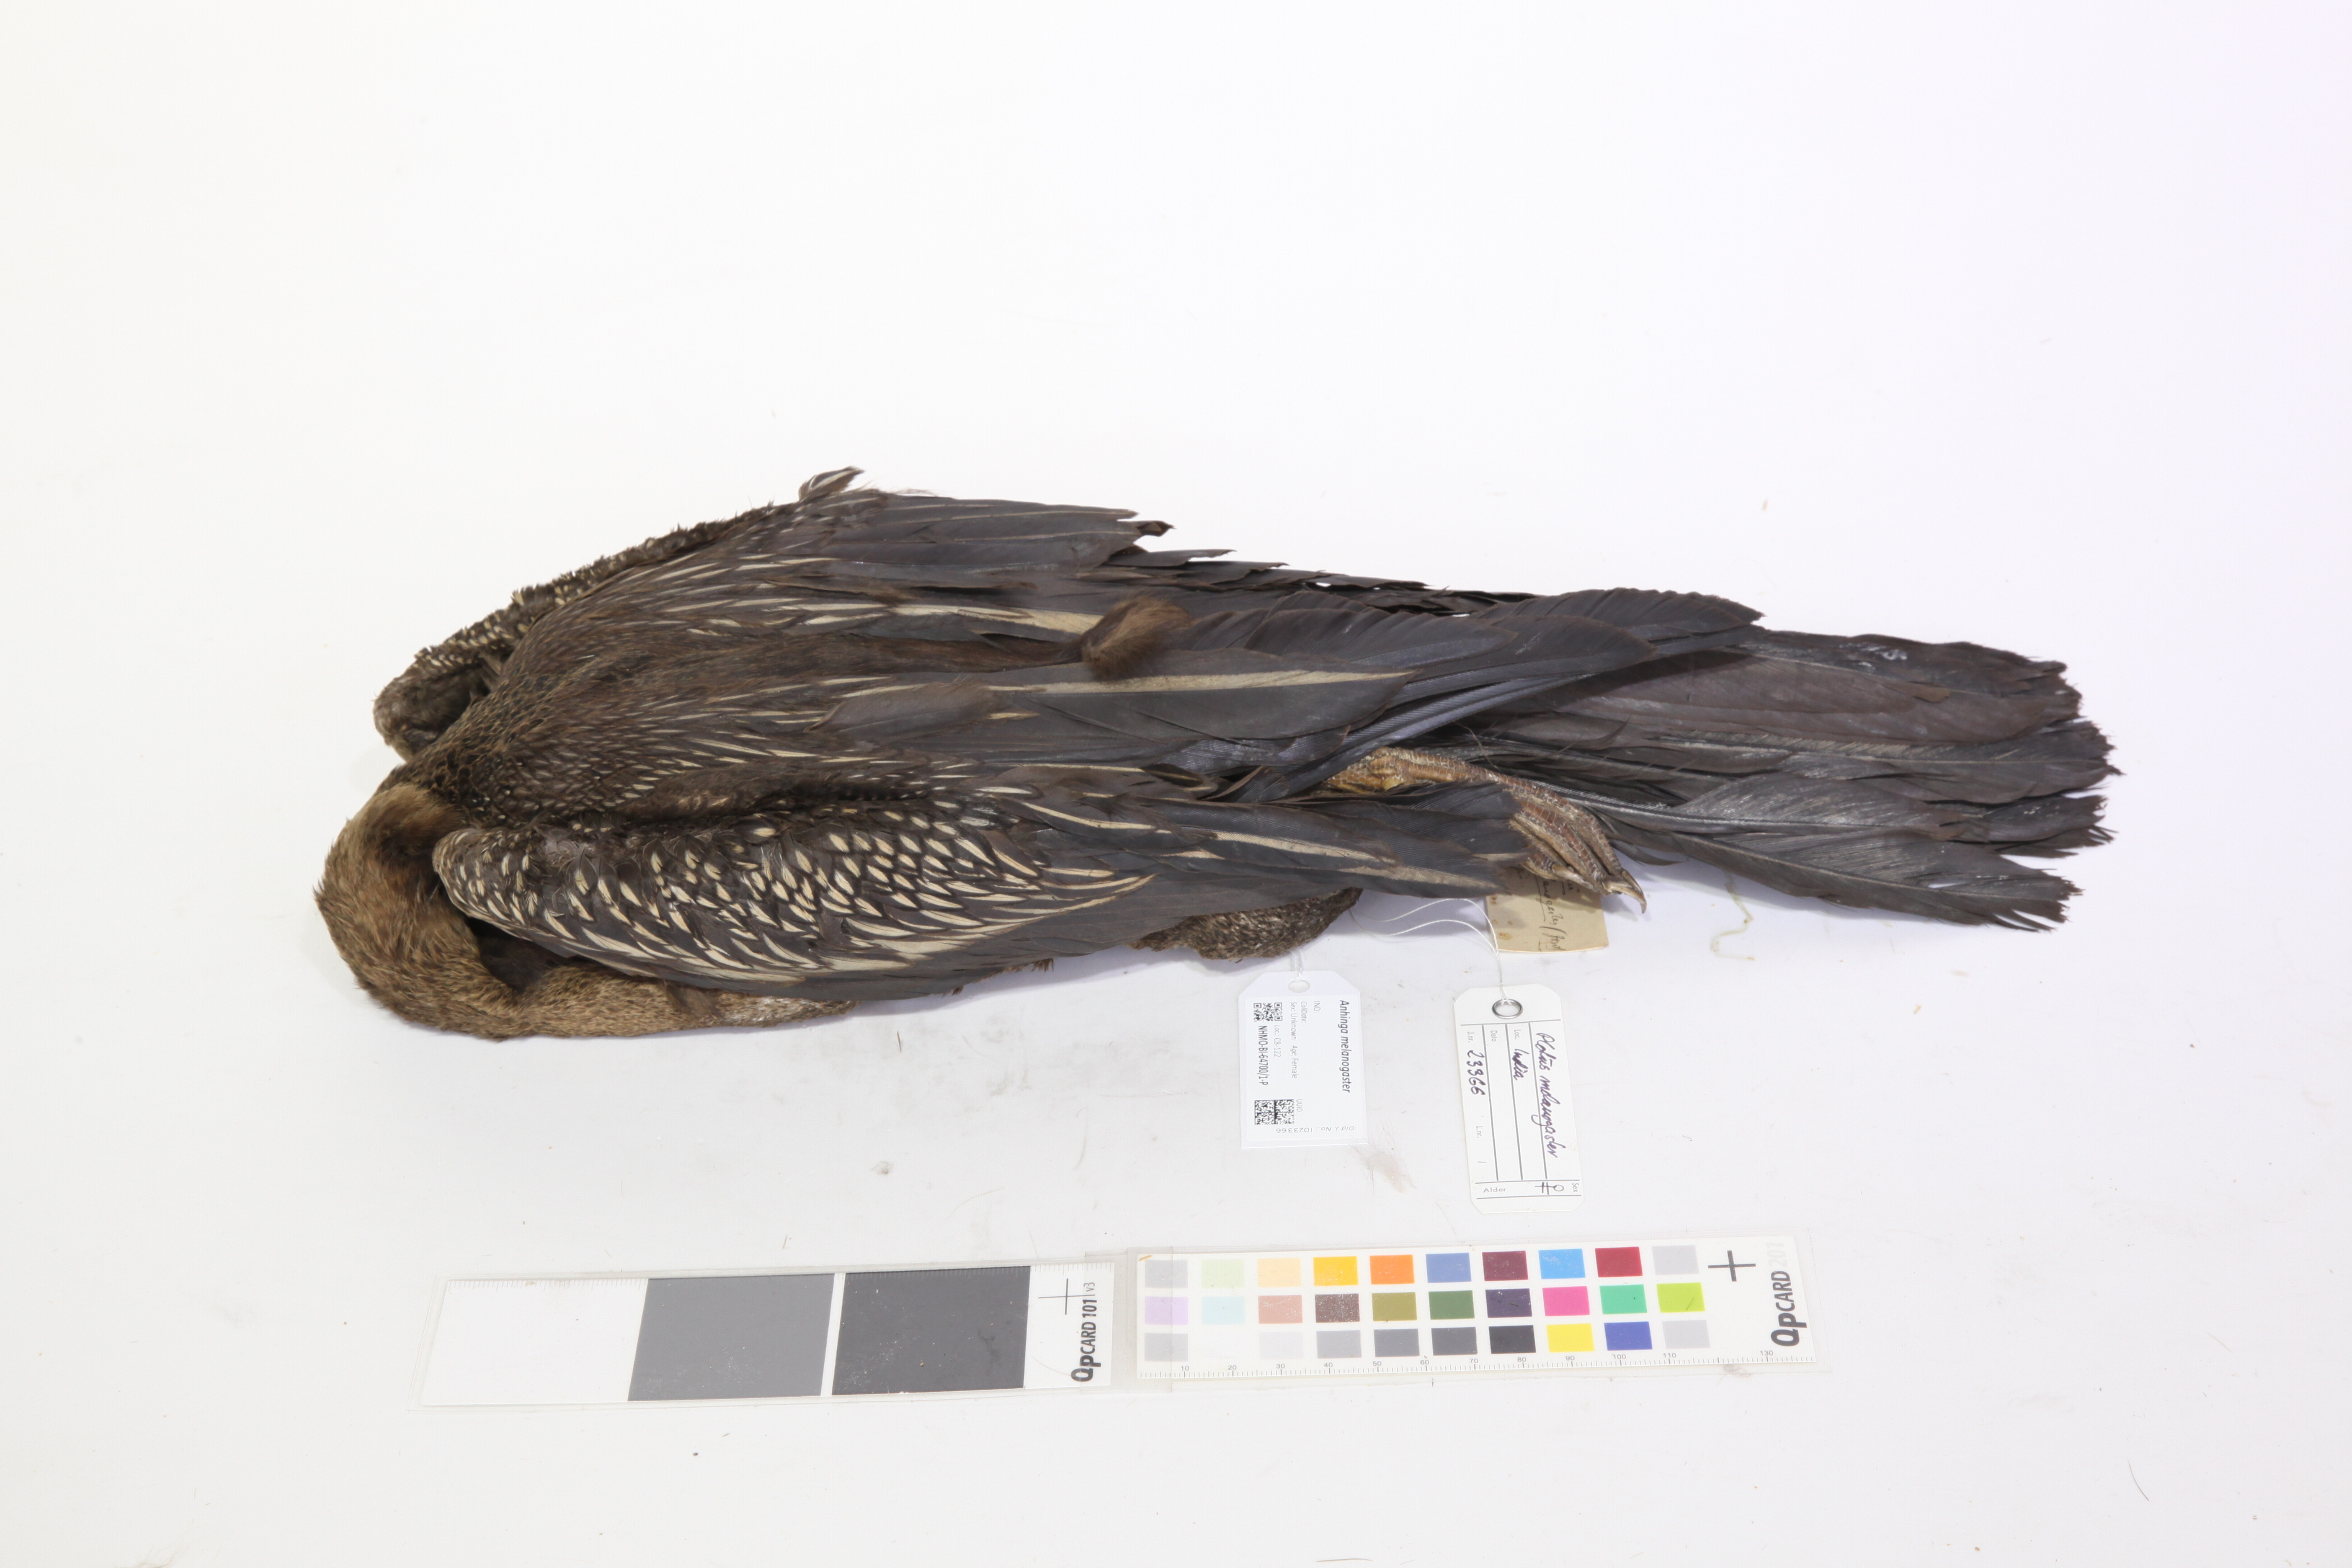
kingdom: Animalia
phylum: Chordata
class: Aves
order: Suliformes
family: Anhingidae
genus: Anhinga
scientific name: Anhinga melanogaster
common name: Oriental darter
